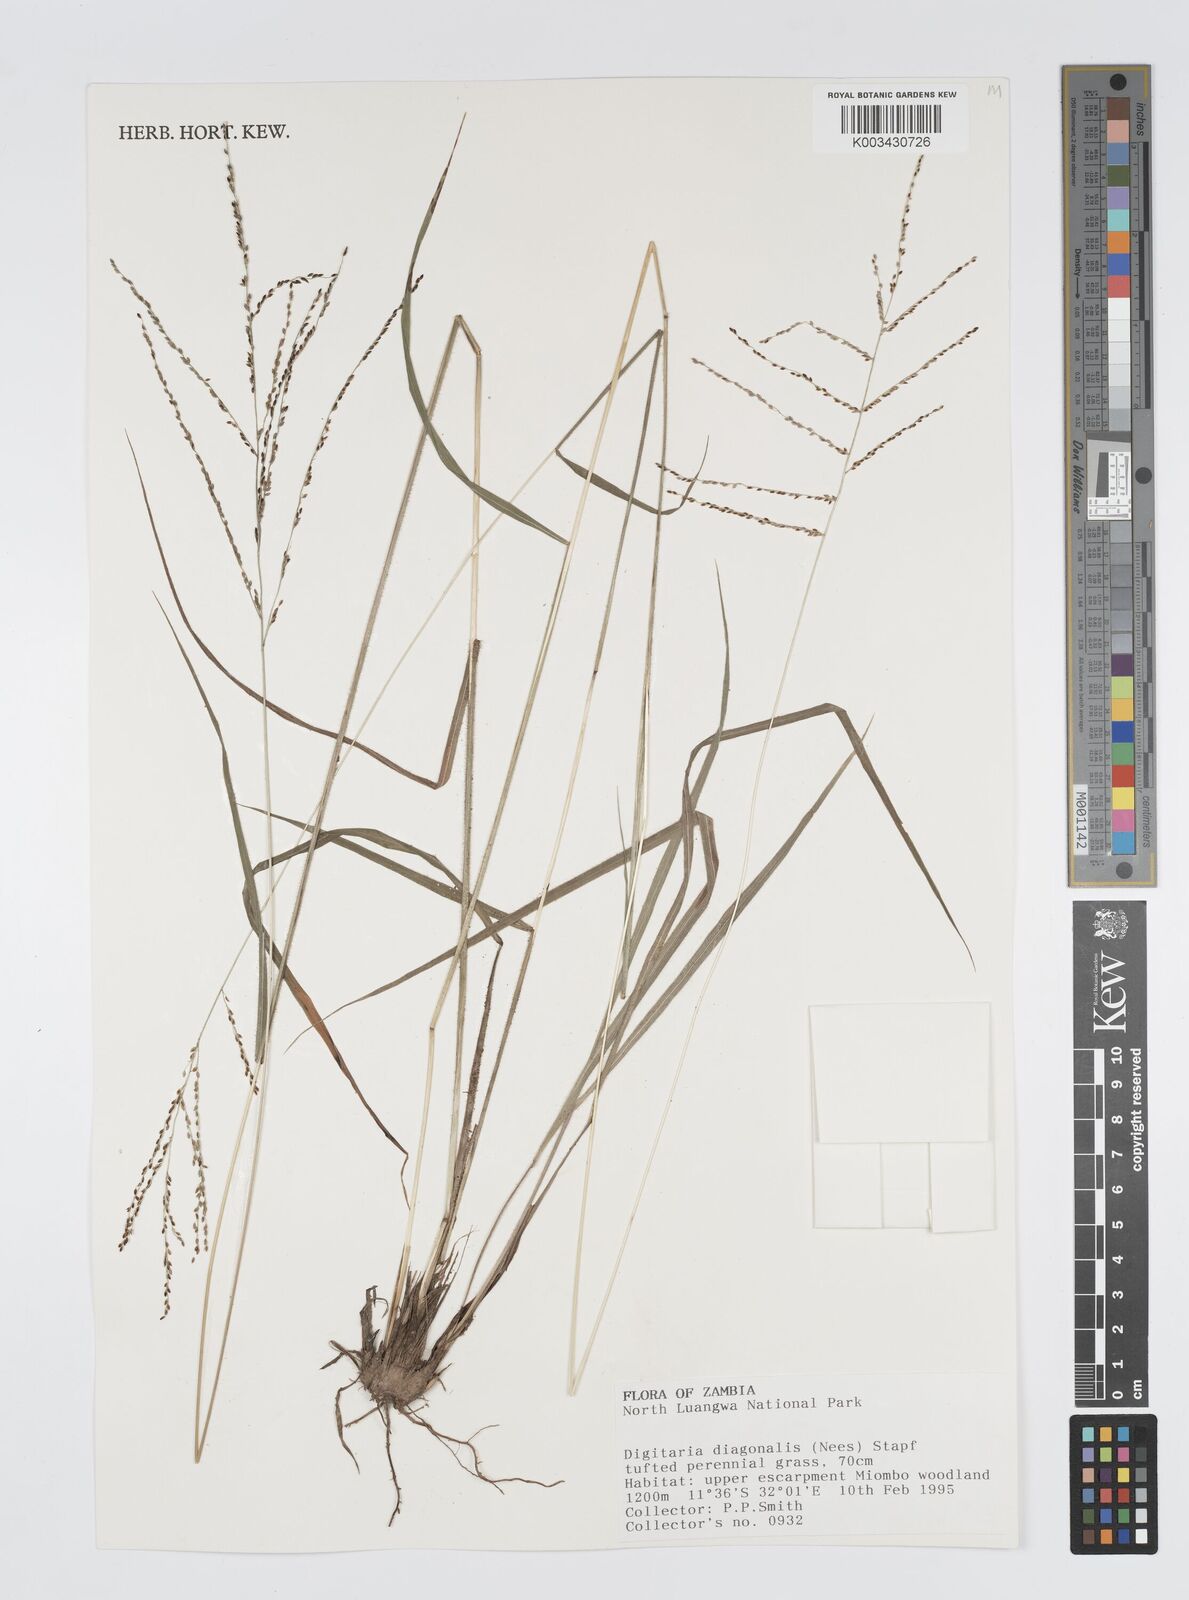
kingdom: Plantae
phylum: Tracheophyta
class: Liliopsida
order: Poales
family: Poaceae
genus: Digitaria
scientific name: Digitaria diagonalis
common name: Brown-seed finger grass
